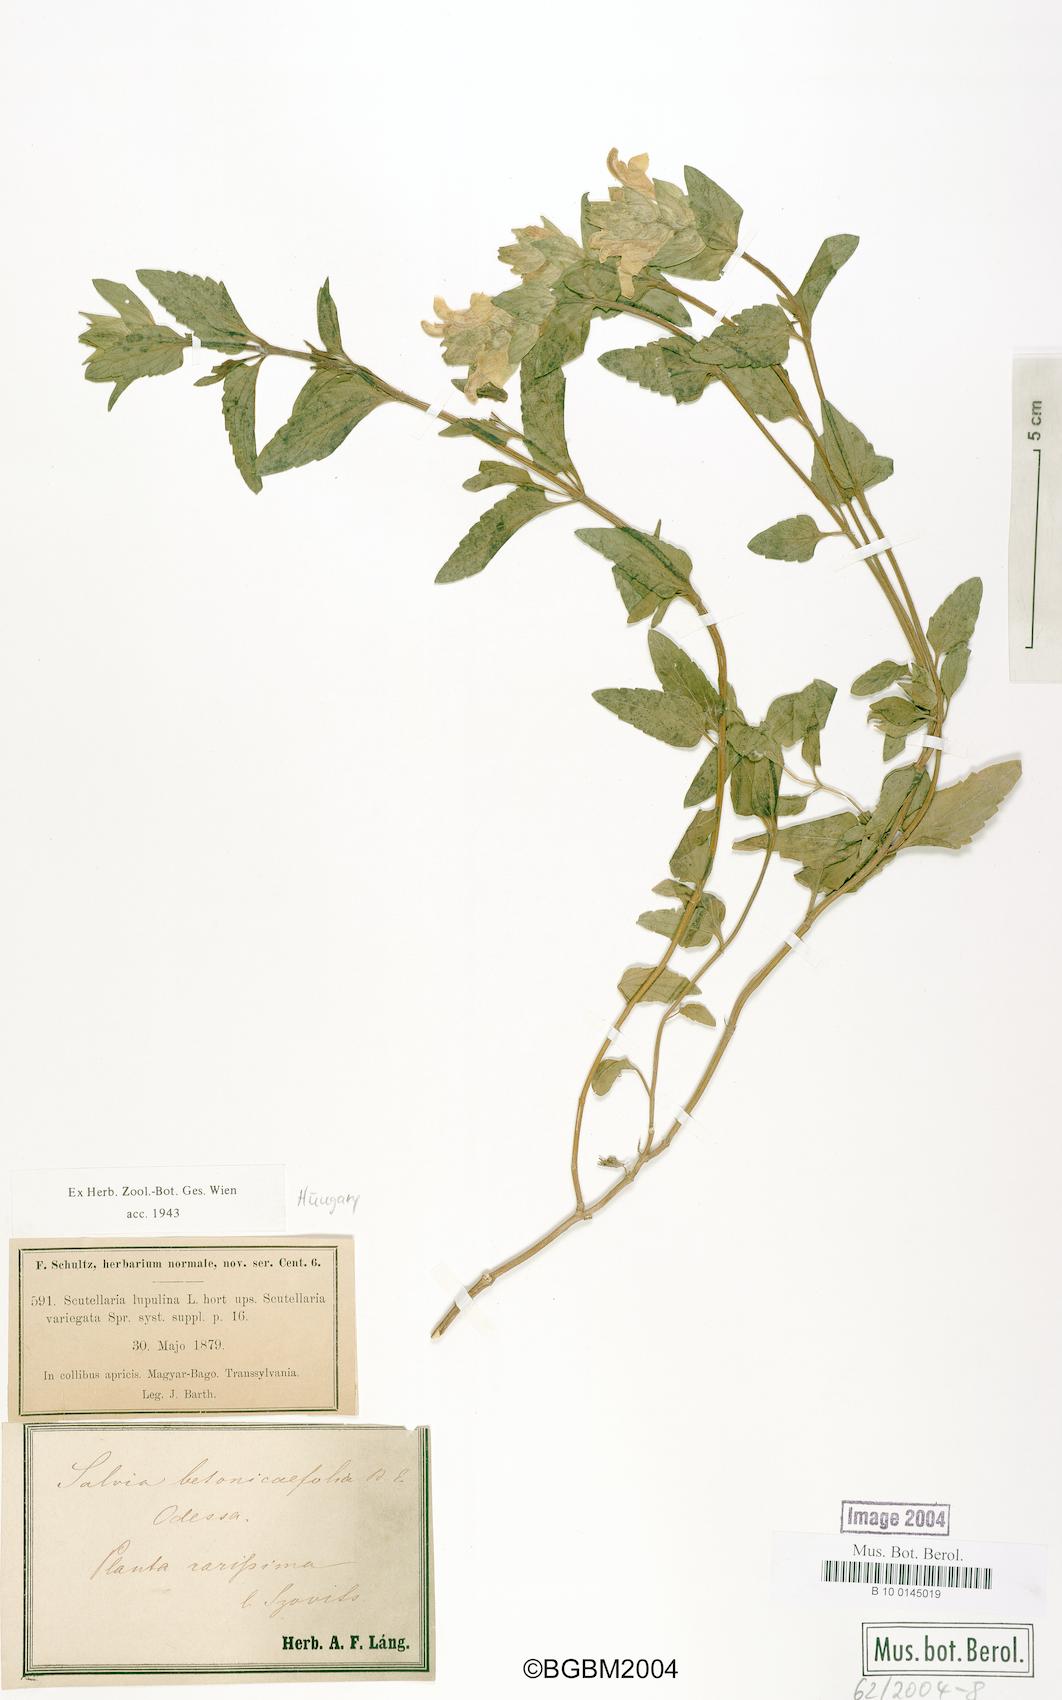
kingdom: Plantae
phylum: Tracheophyta
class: Magnoliopsida
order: Lamiales
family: Lamiaceae
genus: Salvia
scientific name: Salvia
